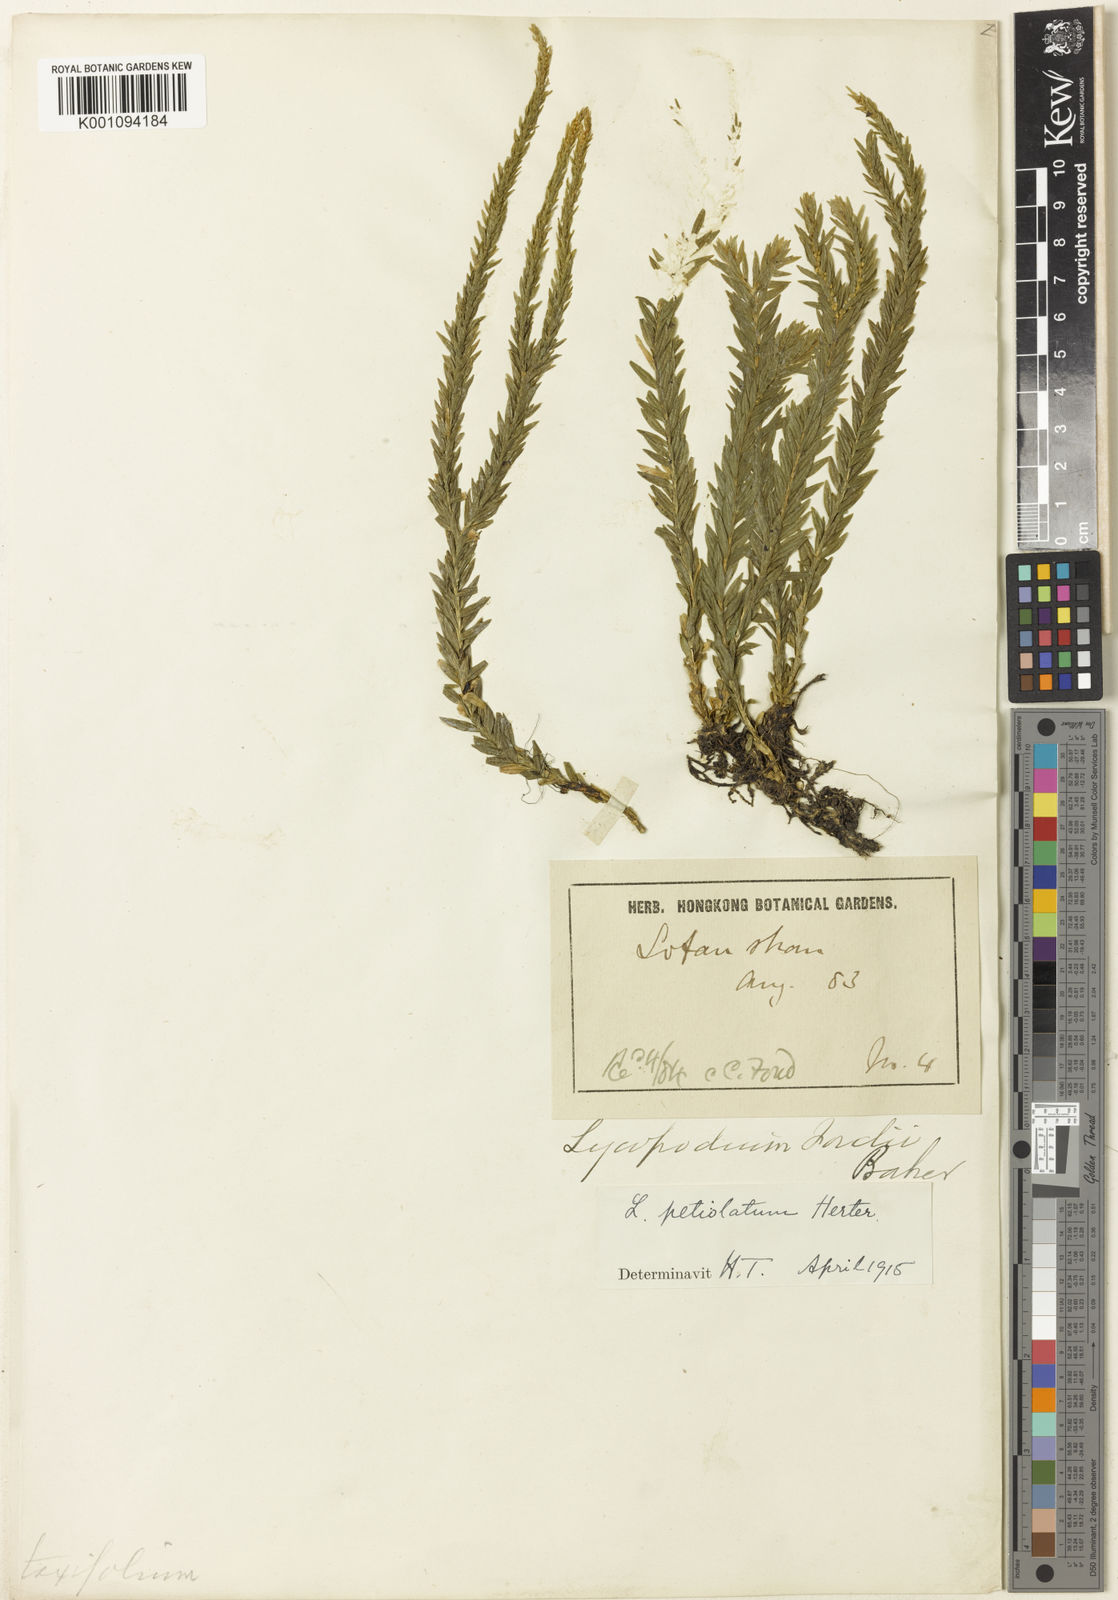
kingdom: Plantae
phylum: Tracheophyta
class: Lycopodiopsida
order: Lycopodiales
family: Lycopodiaceae
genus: Lycopodium
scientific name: Lycopodium
